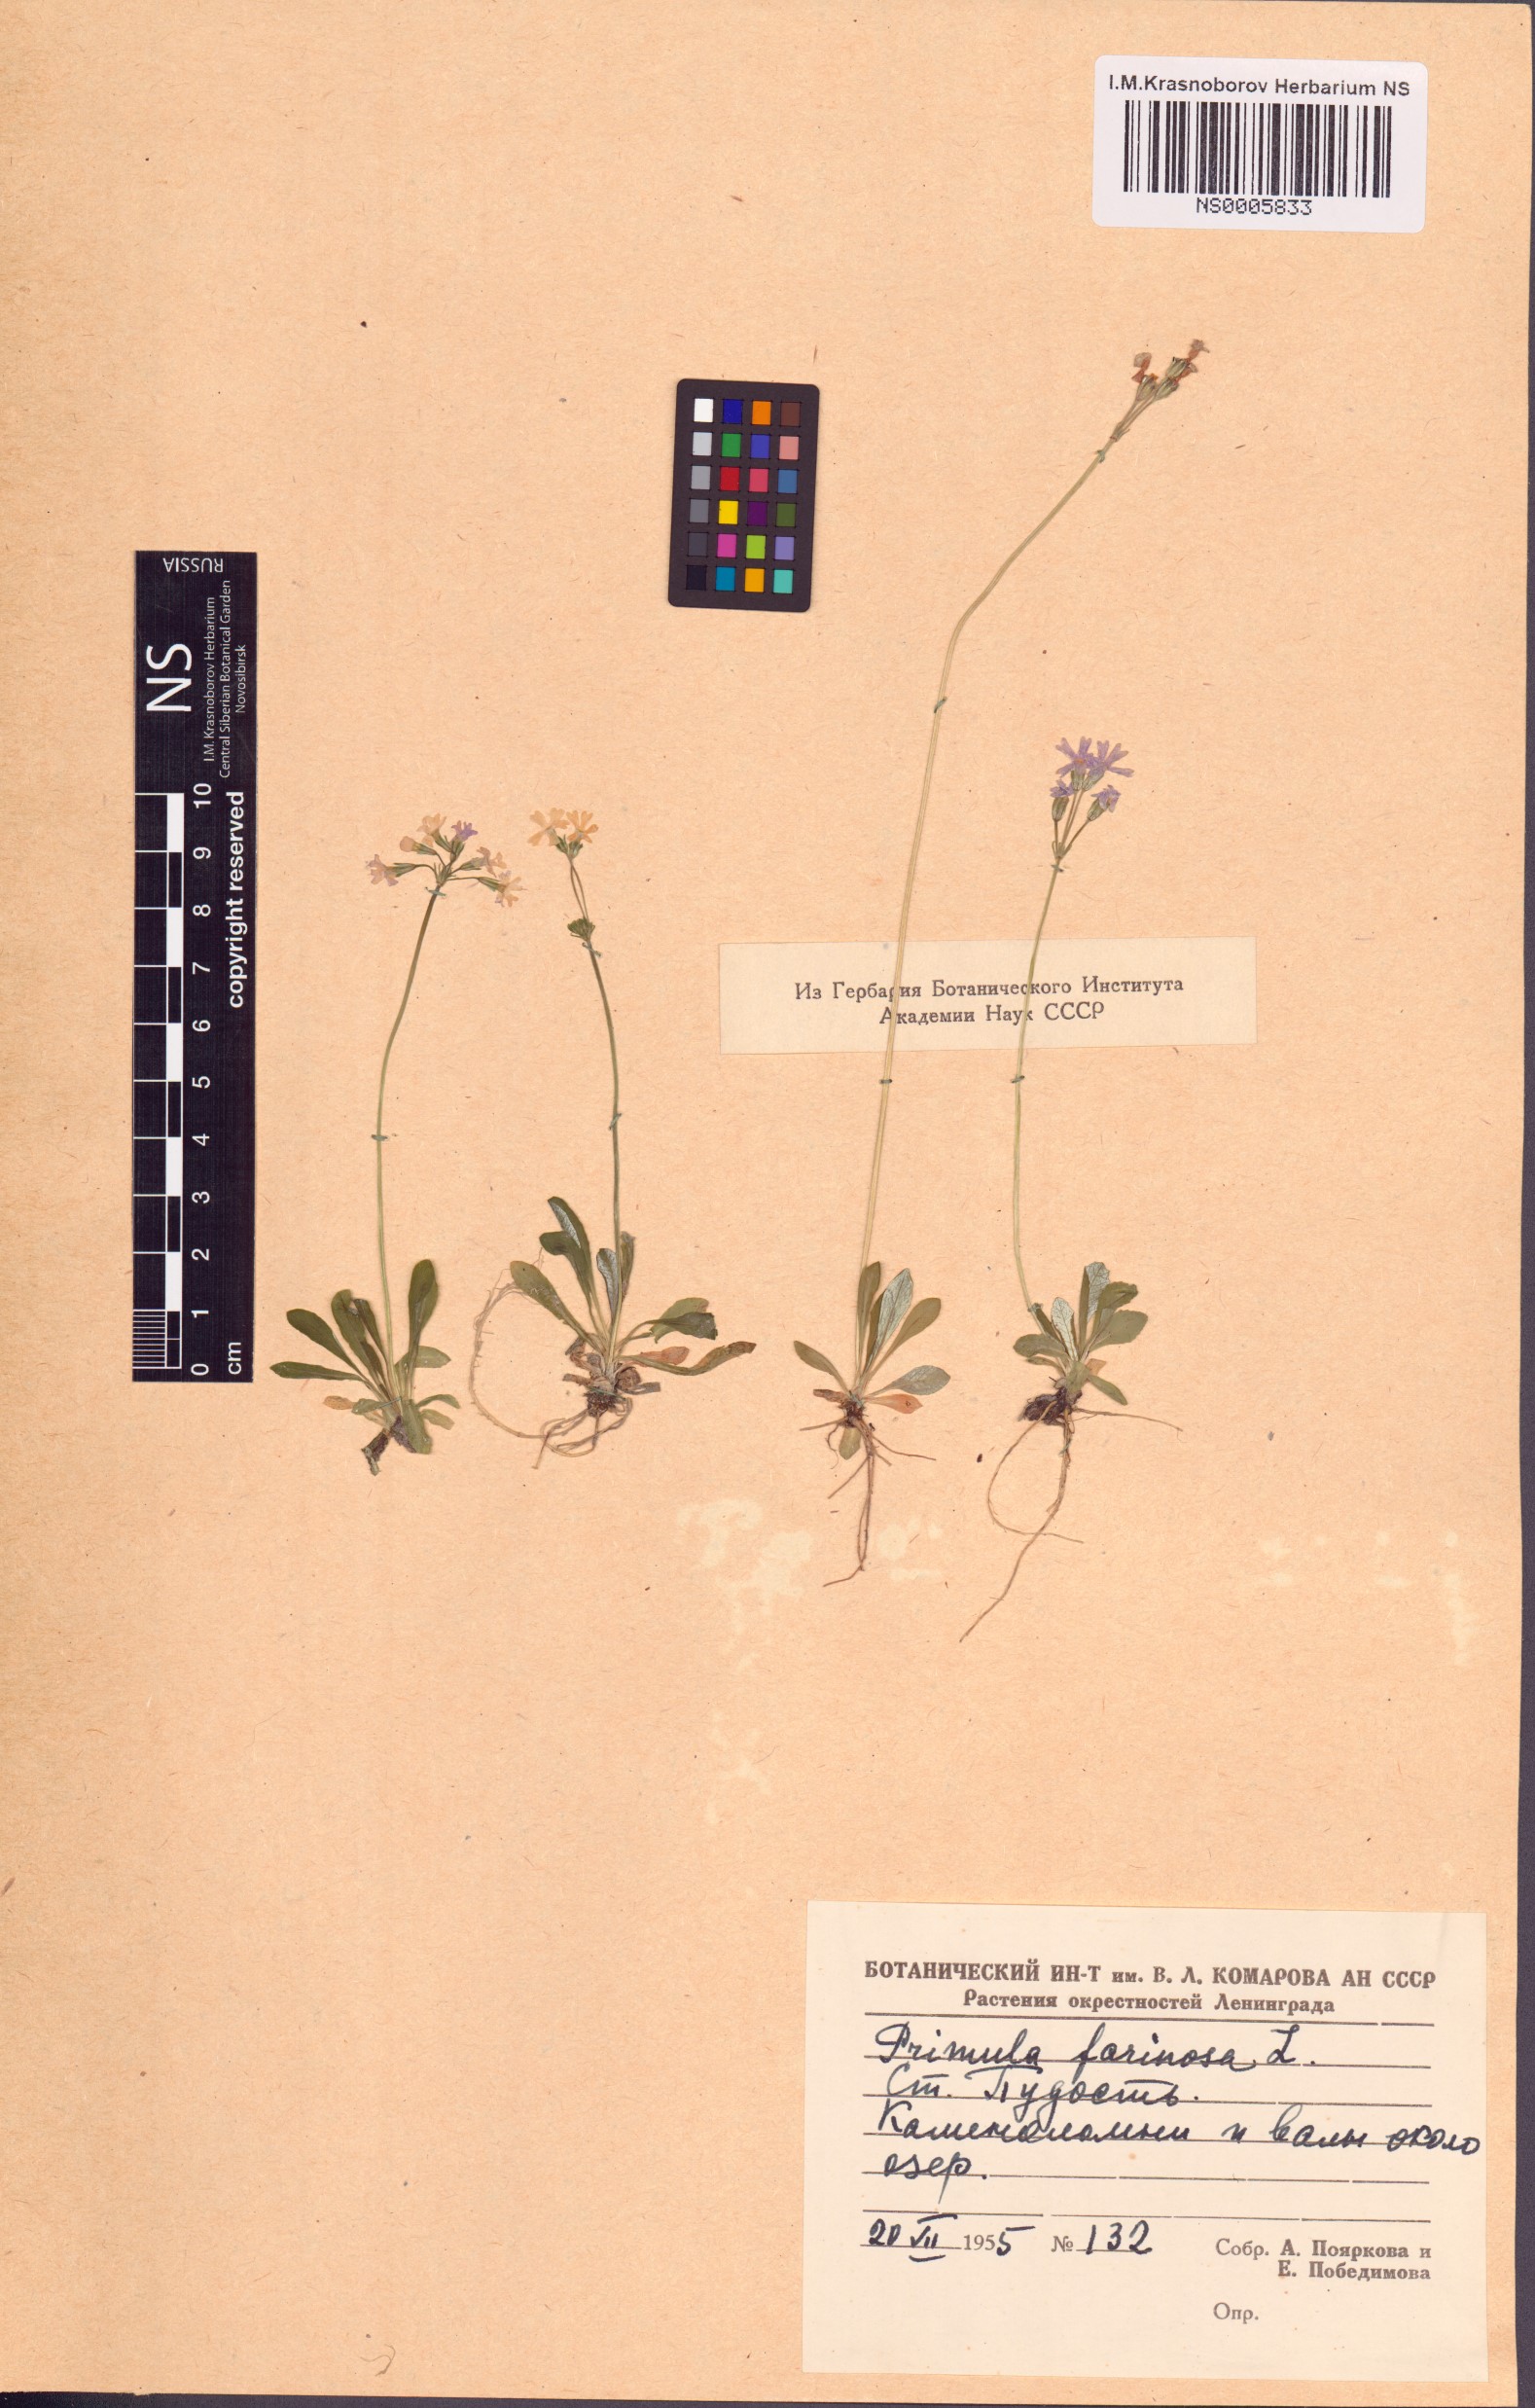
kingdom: Plantae
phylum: Tracheophyta
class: Magnoliopsida
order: Ericales
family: Primulaceae
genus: Primula
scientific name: Primula farinosa
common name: Bird's-eye primrose
